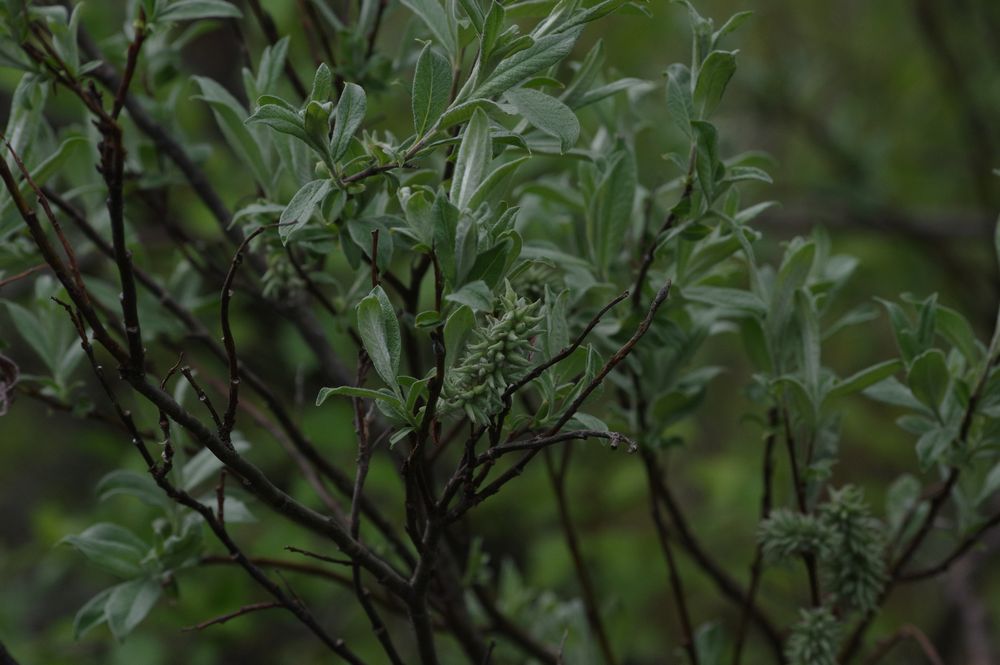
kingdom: Plantae
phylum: Tracheophyta
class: Magnoliopsida
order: Malpighiales
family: Salicaceae
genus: Salix
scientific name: Salix lapponum
